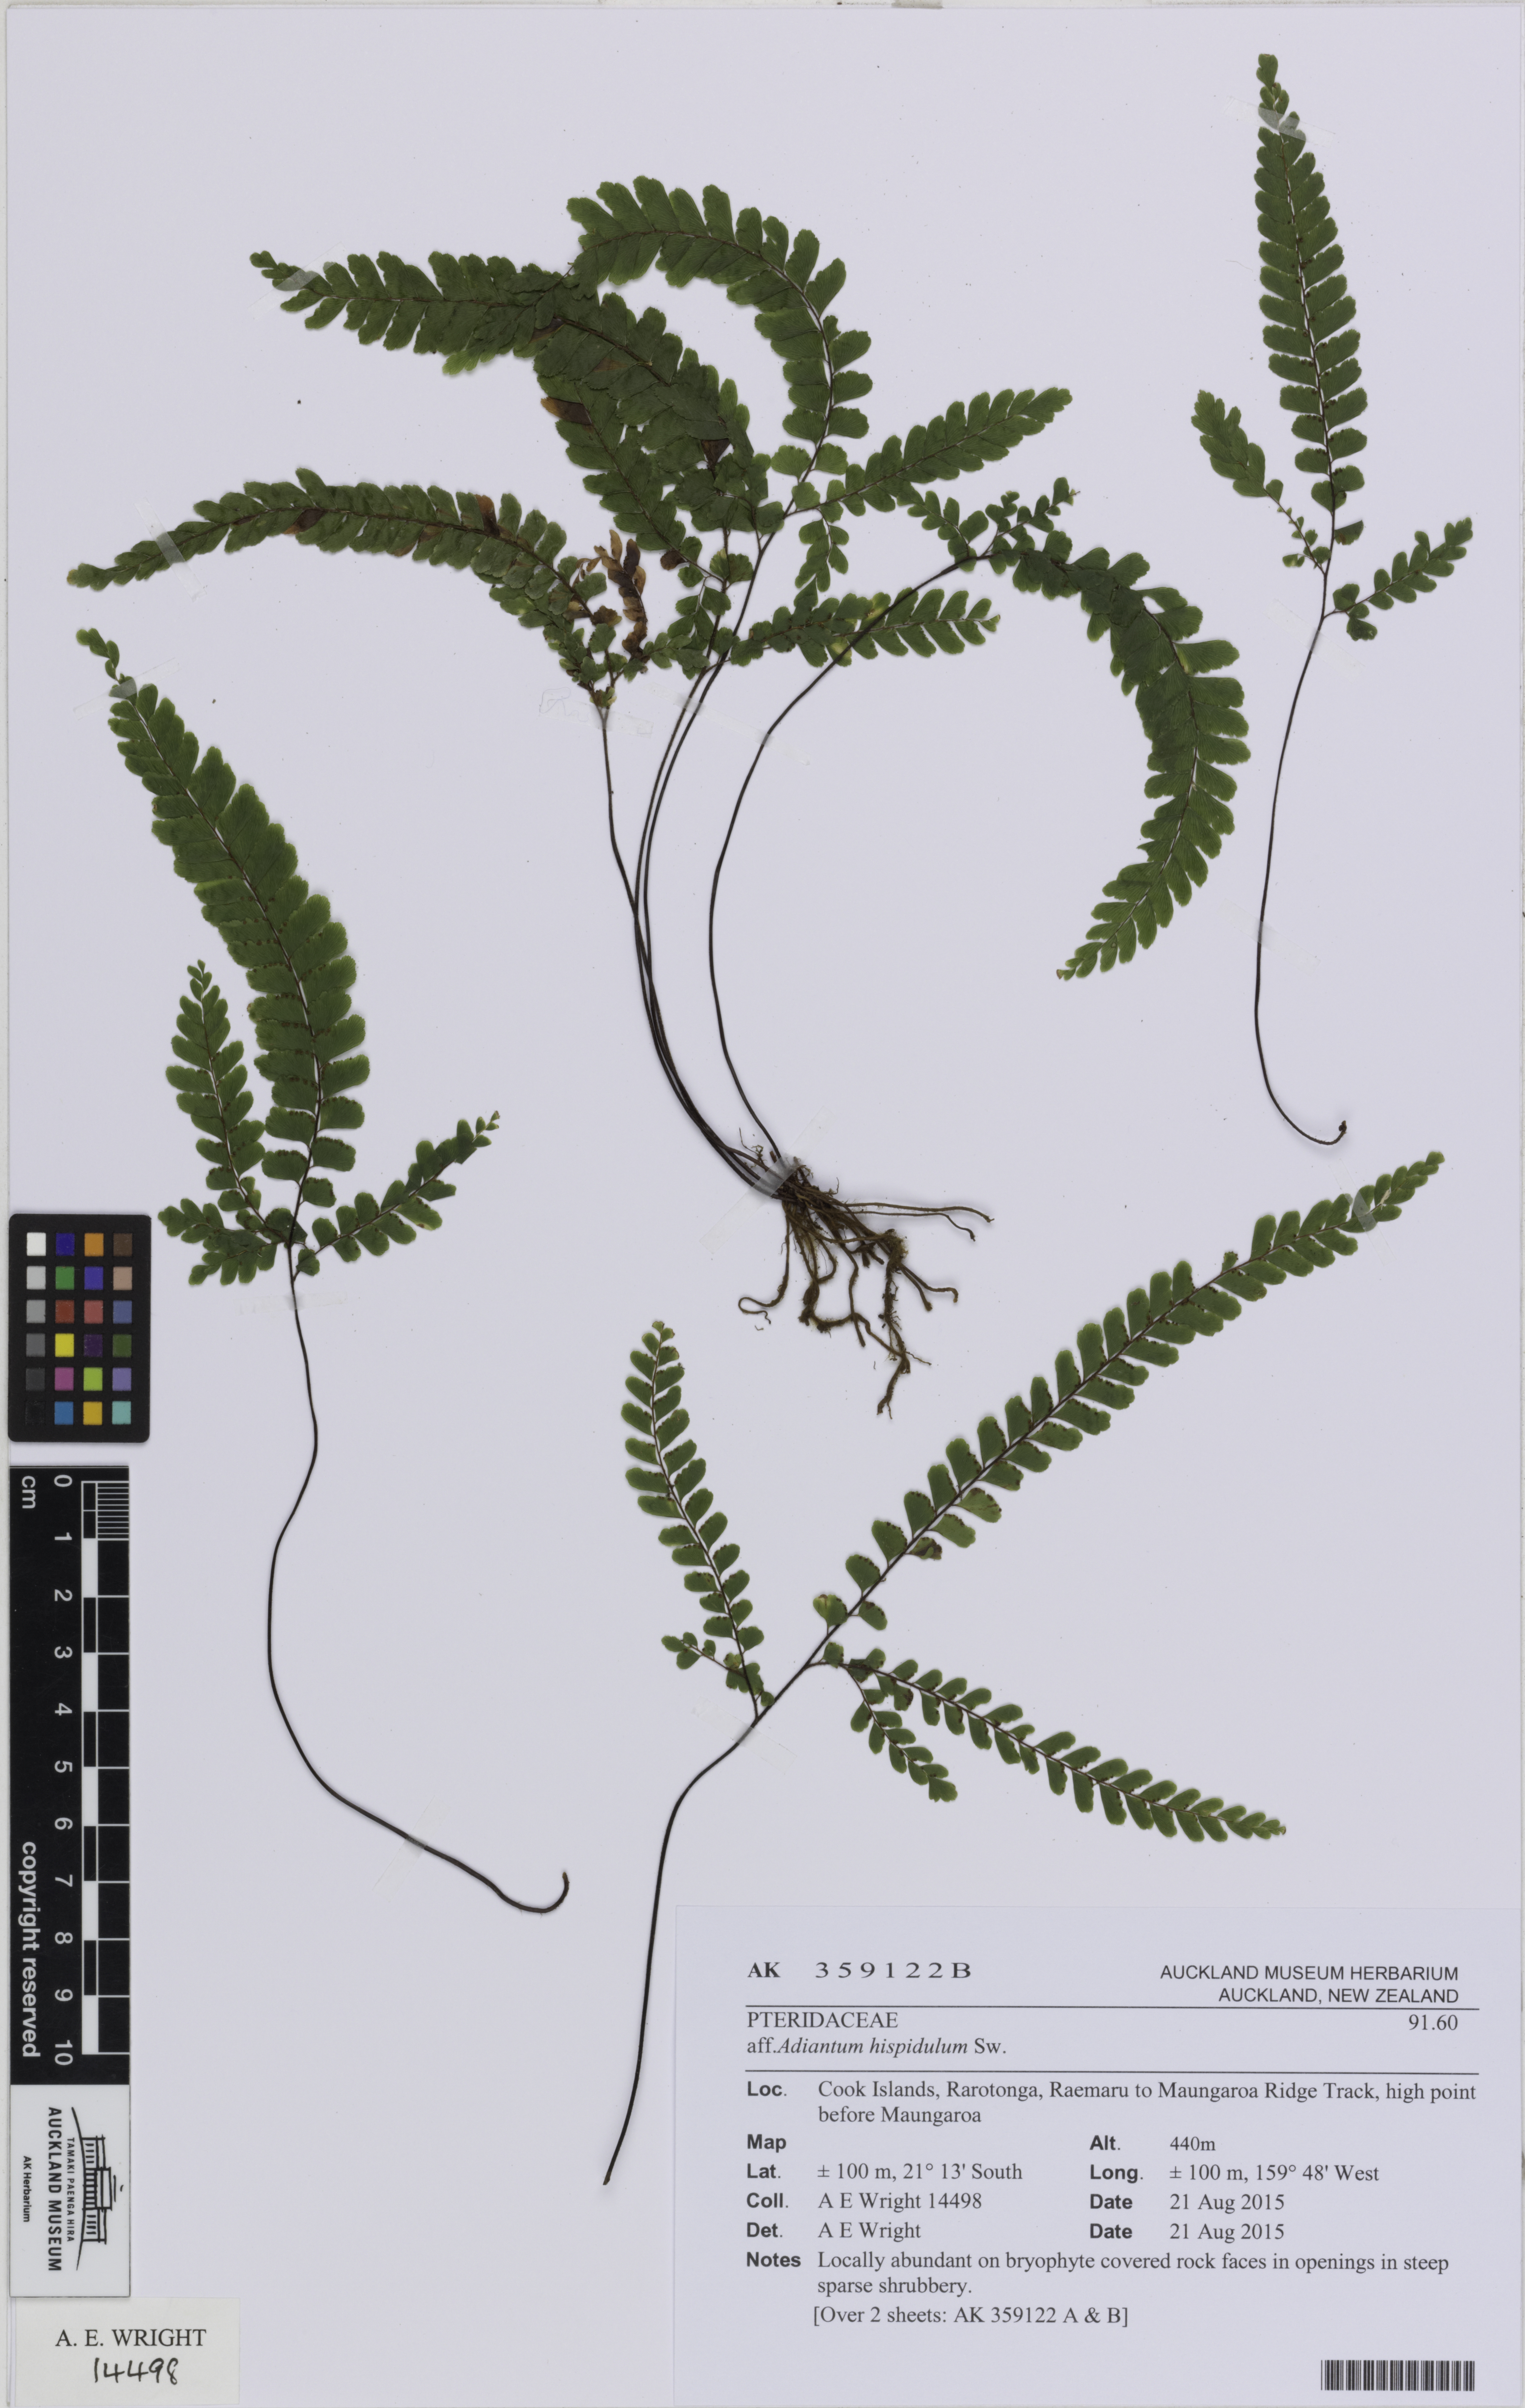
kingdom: Plantae
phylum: Tracheophyta
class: Polypodiopsida
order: Polypodiales
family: Pteridaceae
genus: Adiantum
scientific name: Adiantum hispidulum
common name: Rough maidenhair
